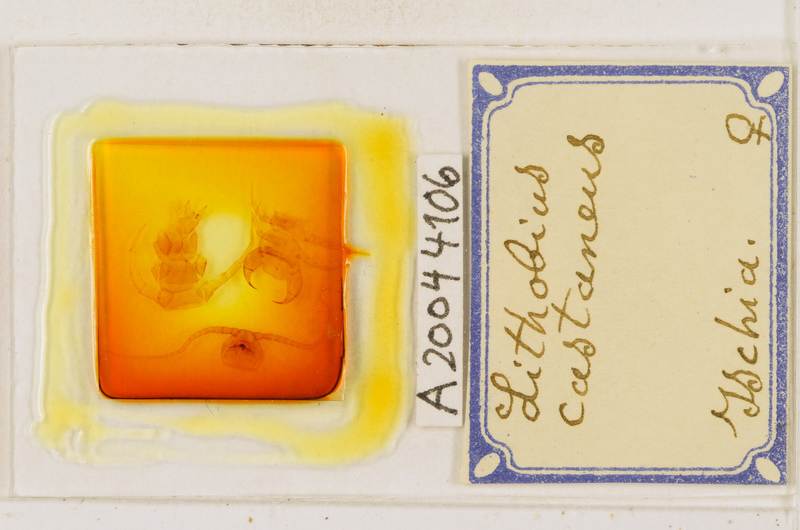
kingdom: Animalia
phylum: Arthropoda
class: Chilopoda
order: Lithobiomorpha
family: Lithobiidae
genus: Lithobius
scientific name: Lithobius castaneus
